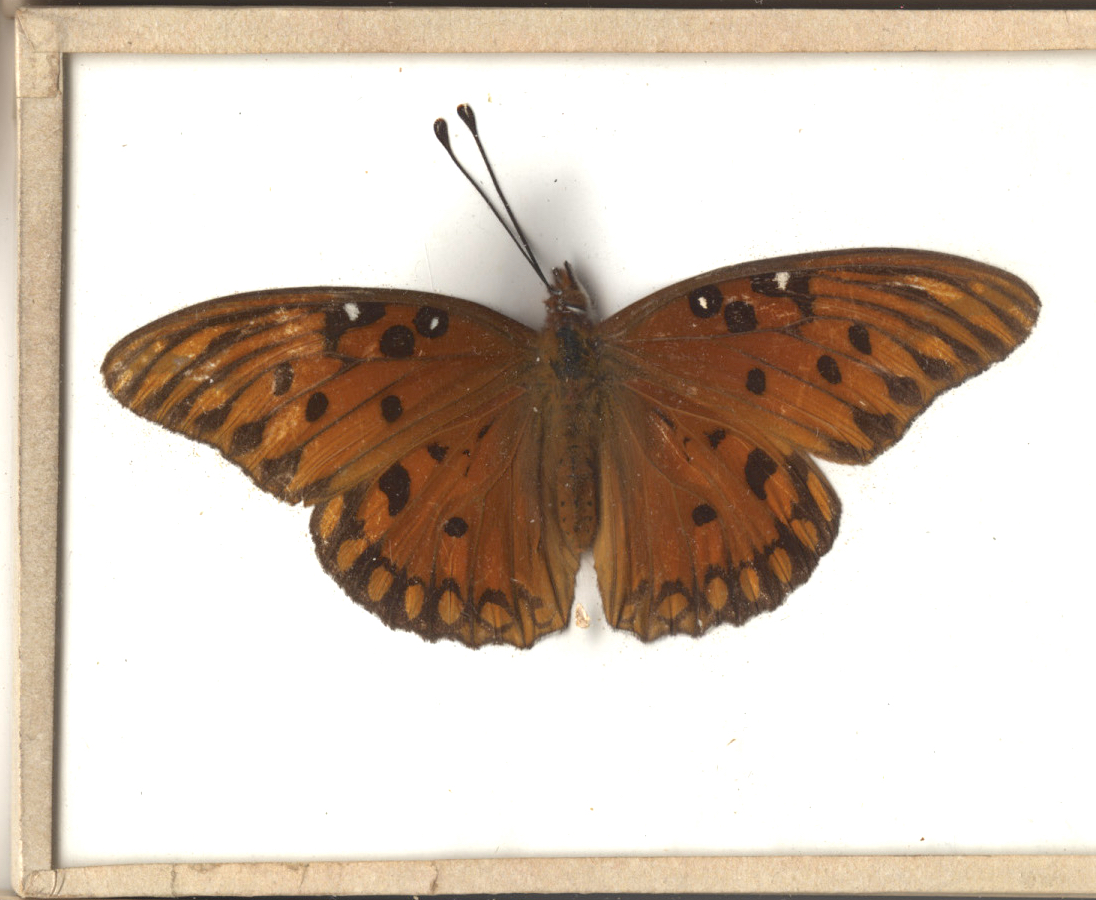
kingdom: Animalia
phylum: Arthropoda
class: Insecta
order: Lepidoptera
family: Nymphalidae
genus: Dione
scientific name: Dione vanillae
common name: Gulf Fritillary
